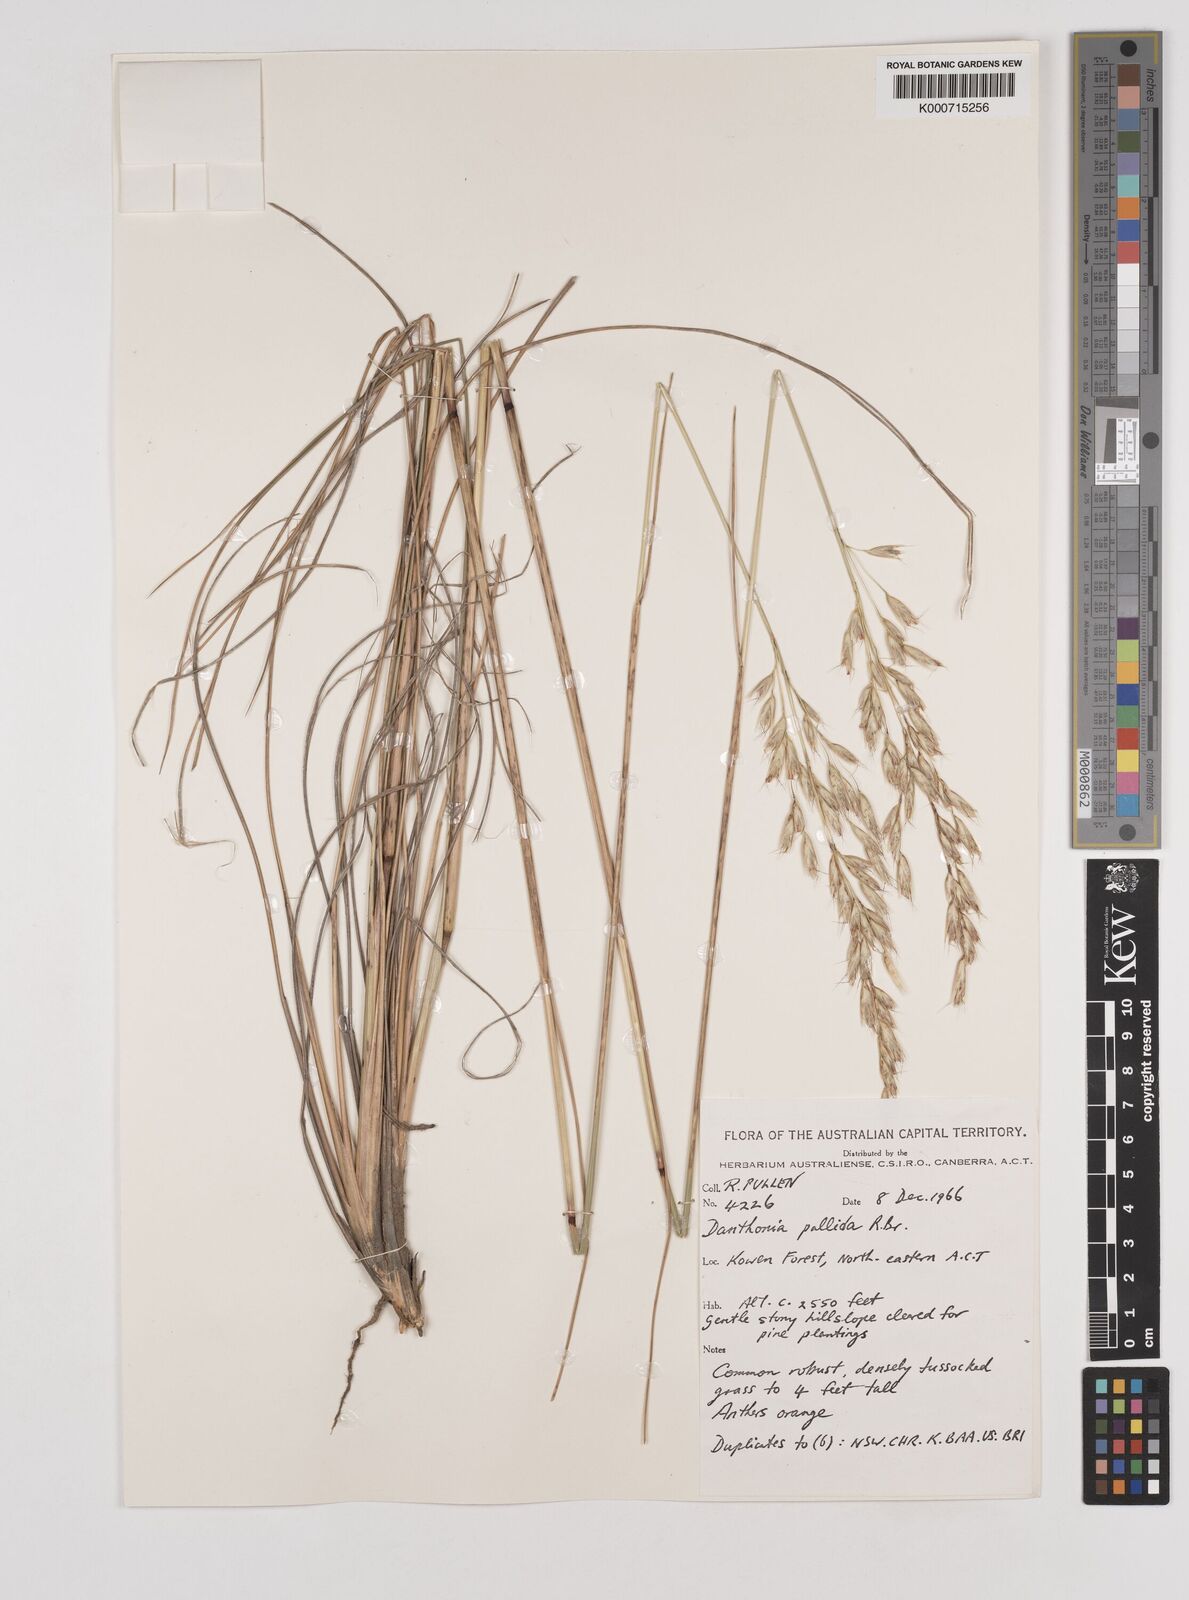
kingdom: Plantae
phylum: Tracheophyta
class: Liliopsida
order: Poales
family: Poaceae
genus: Rytidosperma
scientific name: Rytidosperma
